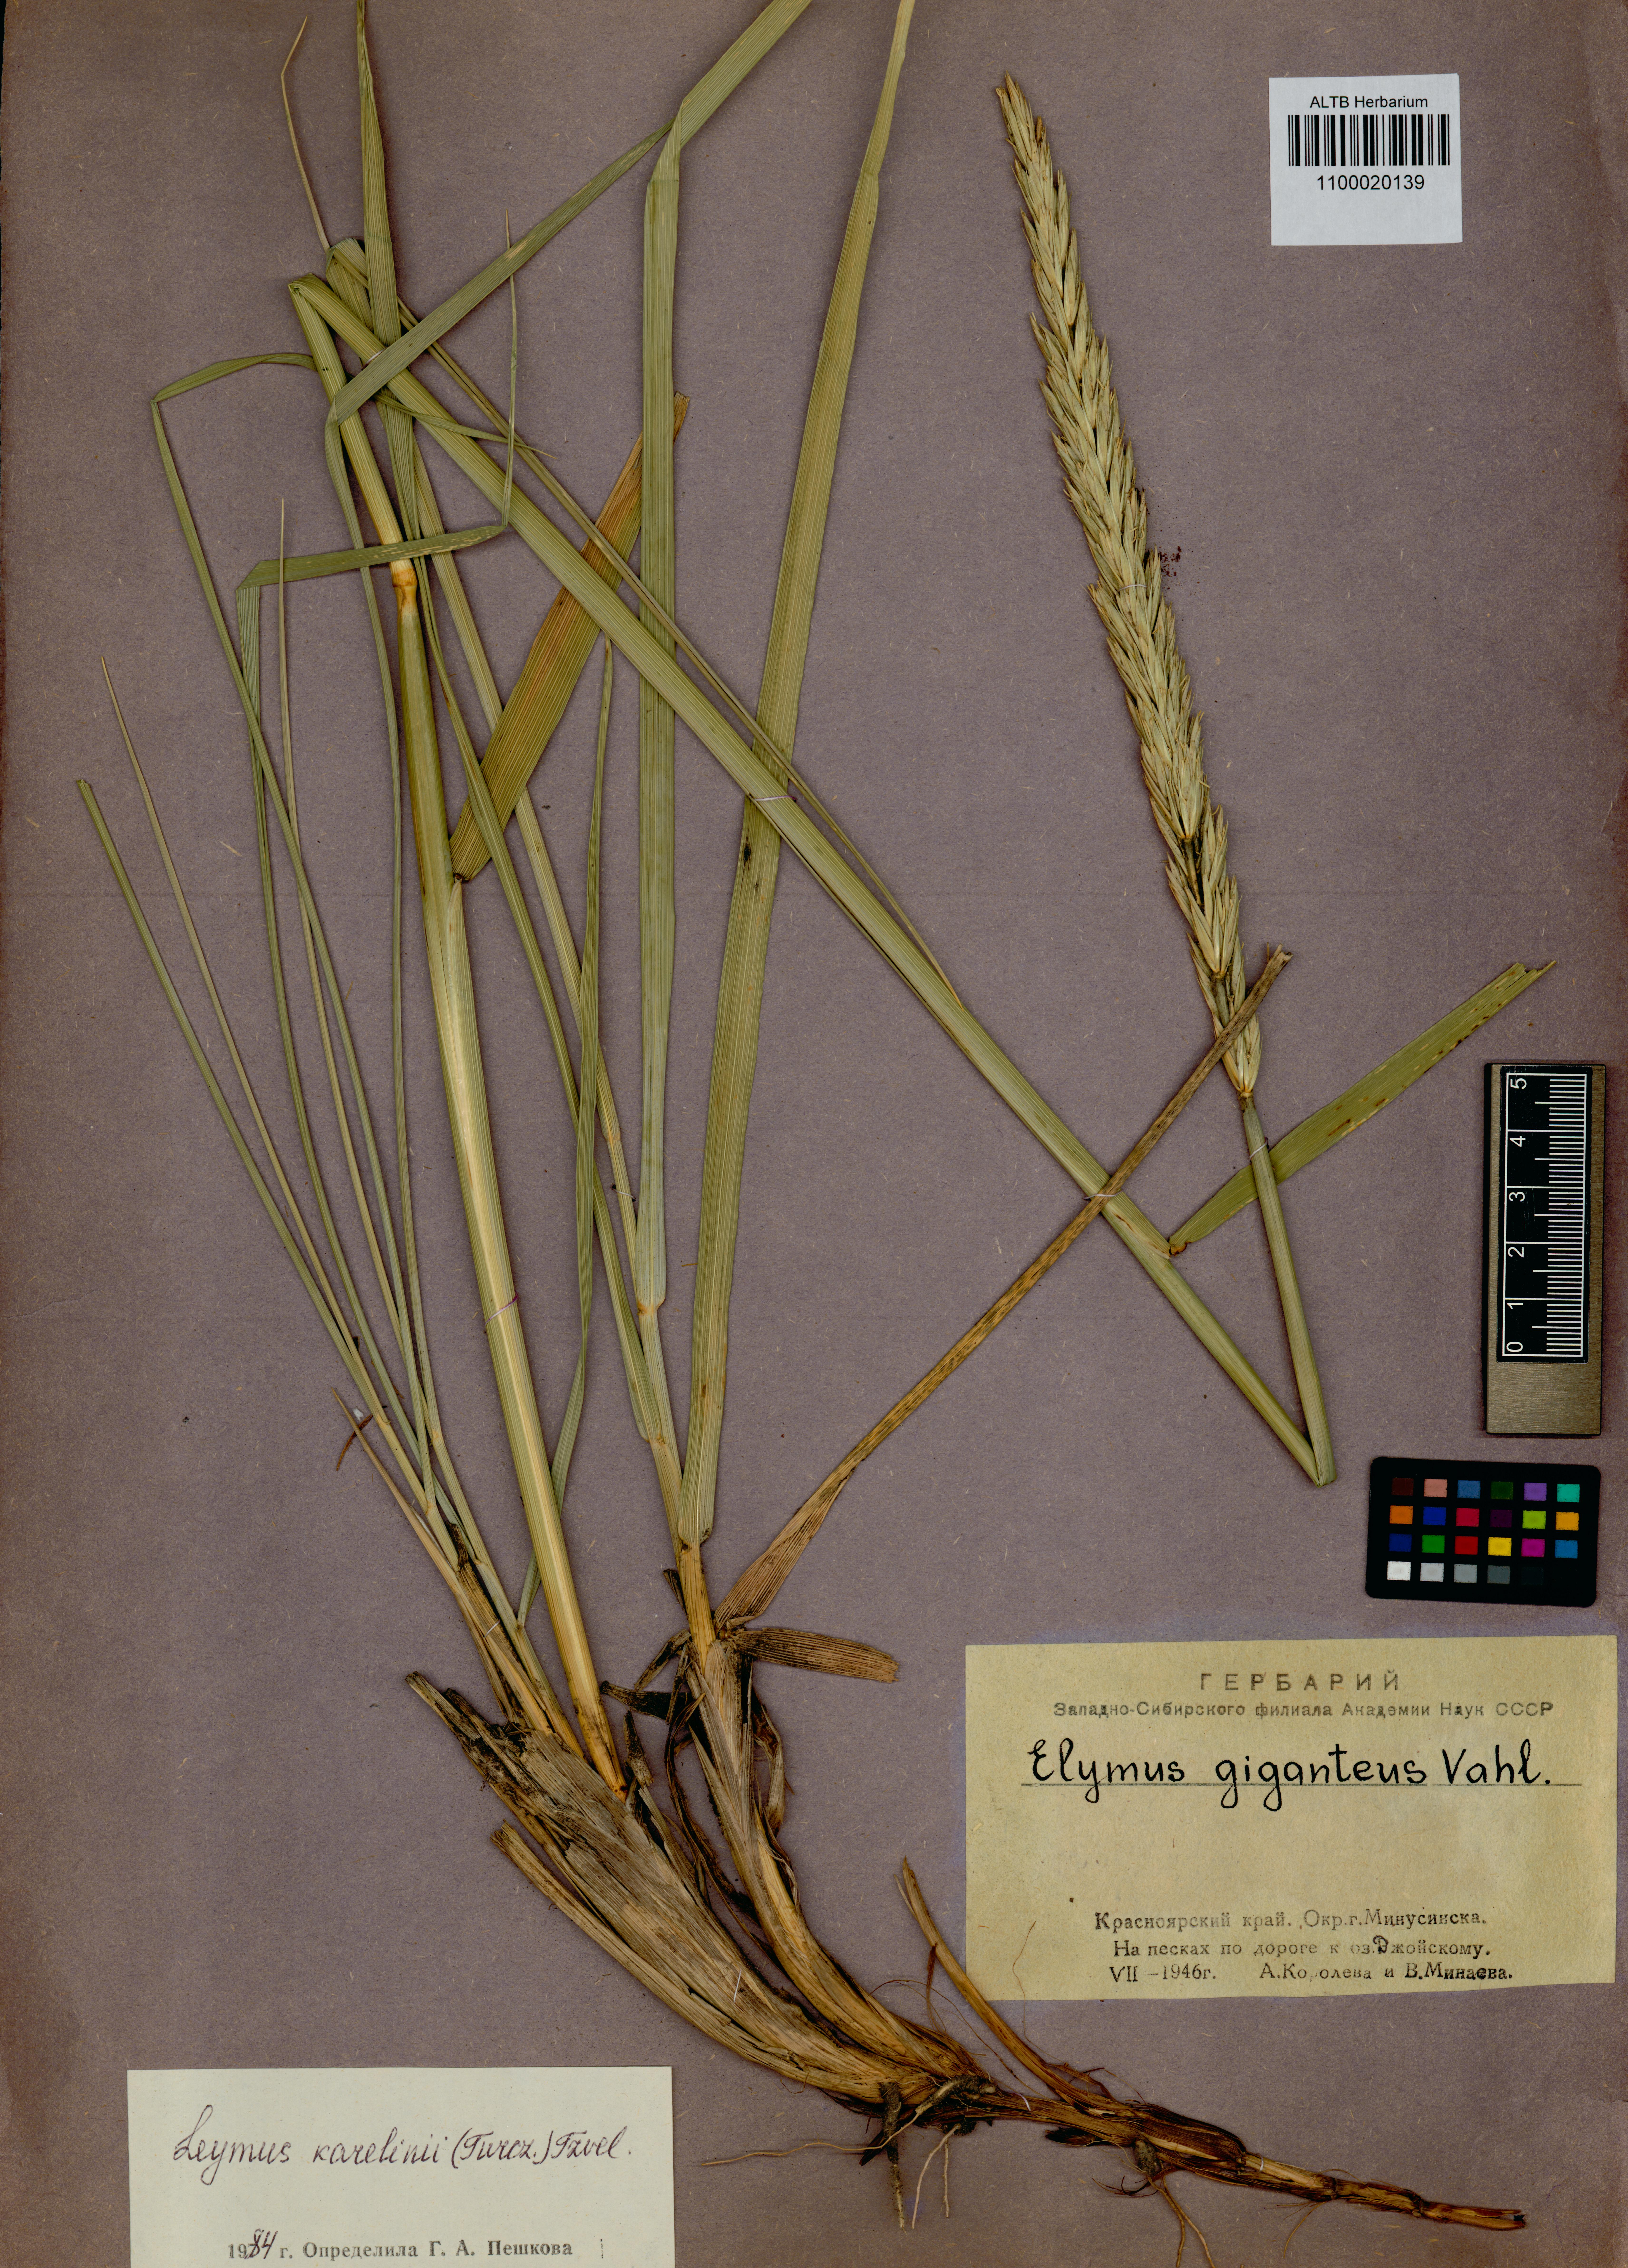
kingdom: Plantae
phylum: Tracheophyta
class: Liliopsida
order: Poales
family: Poaceae
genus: Leymus
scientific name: Leymus karelinii
